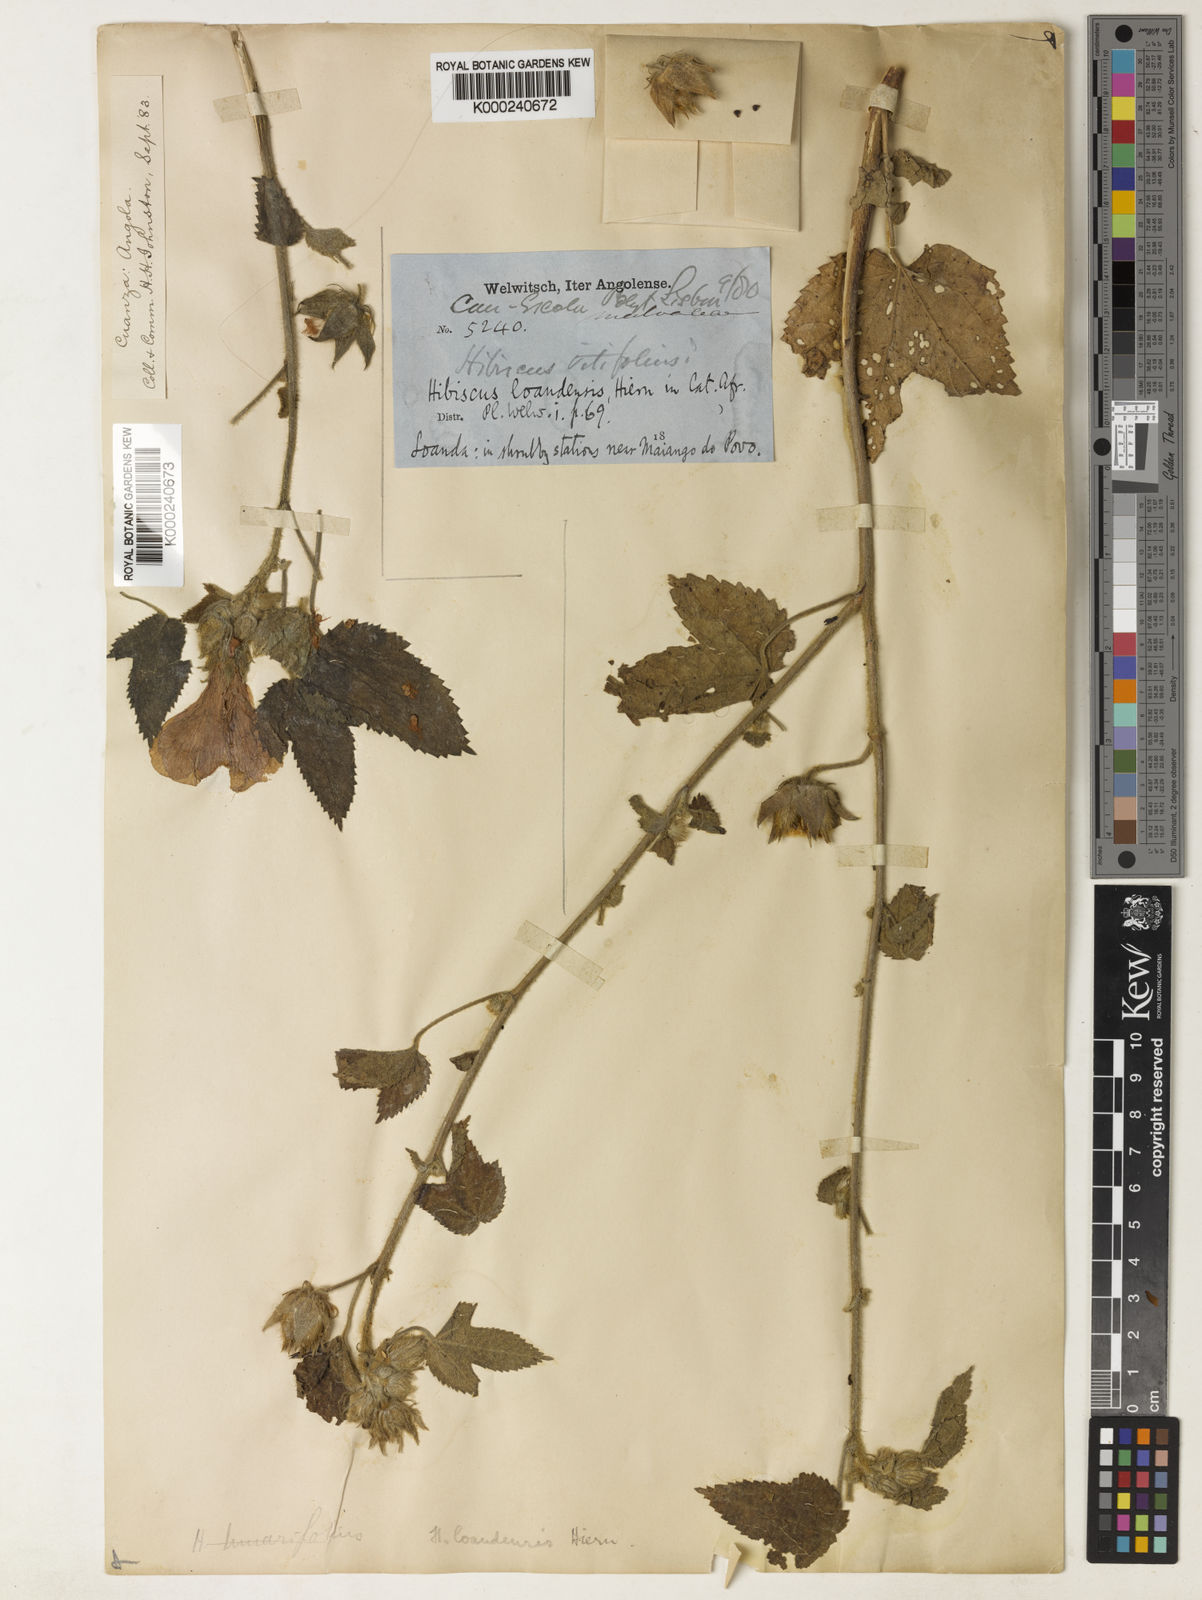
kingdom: Plantae
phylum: Tracheophyta
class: Magnoliopsida
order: Malvales
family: Malvaceae
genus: Hibiscus
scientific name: Hibiscus loandensis
